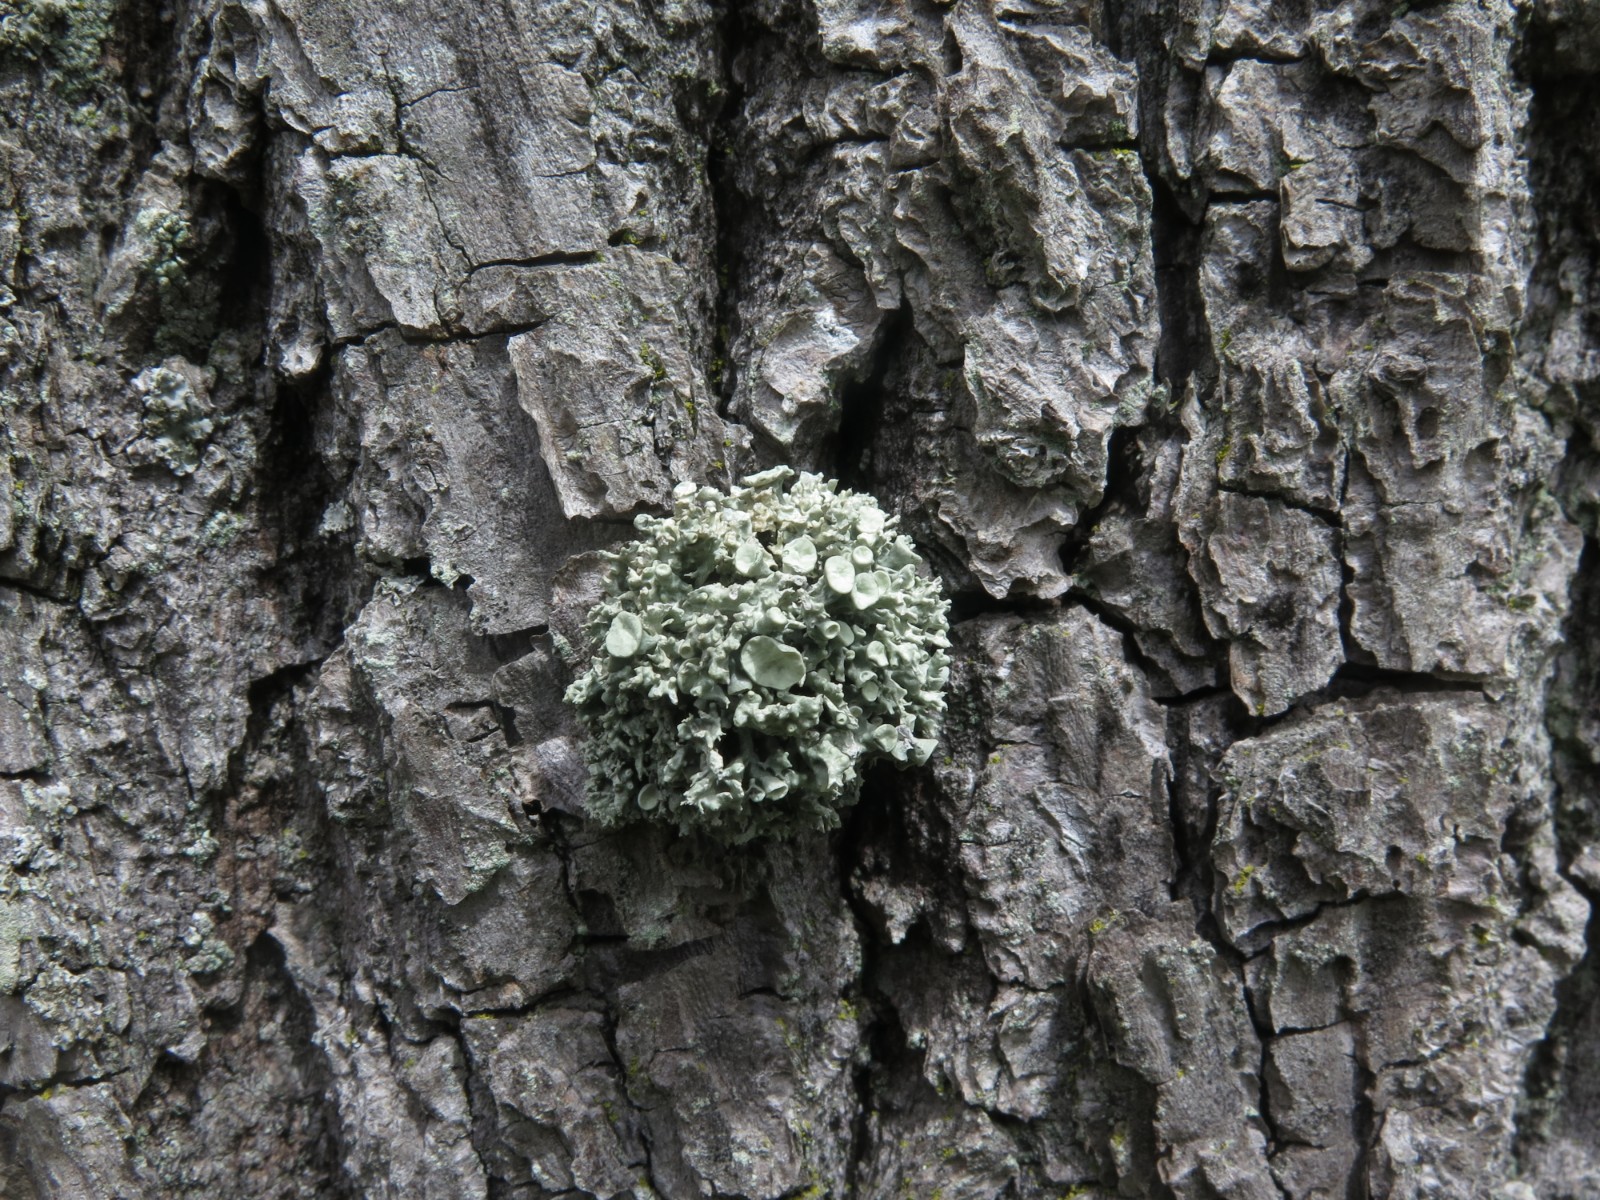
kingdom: Fungi
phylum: Ascomycota
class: Lecanoromycetes
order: Lecanorales
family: Ramalinaceae
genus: Ramalina
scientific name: Ramalina fastigiata
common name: tue-grenlav
